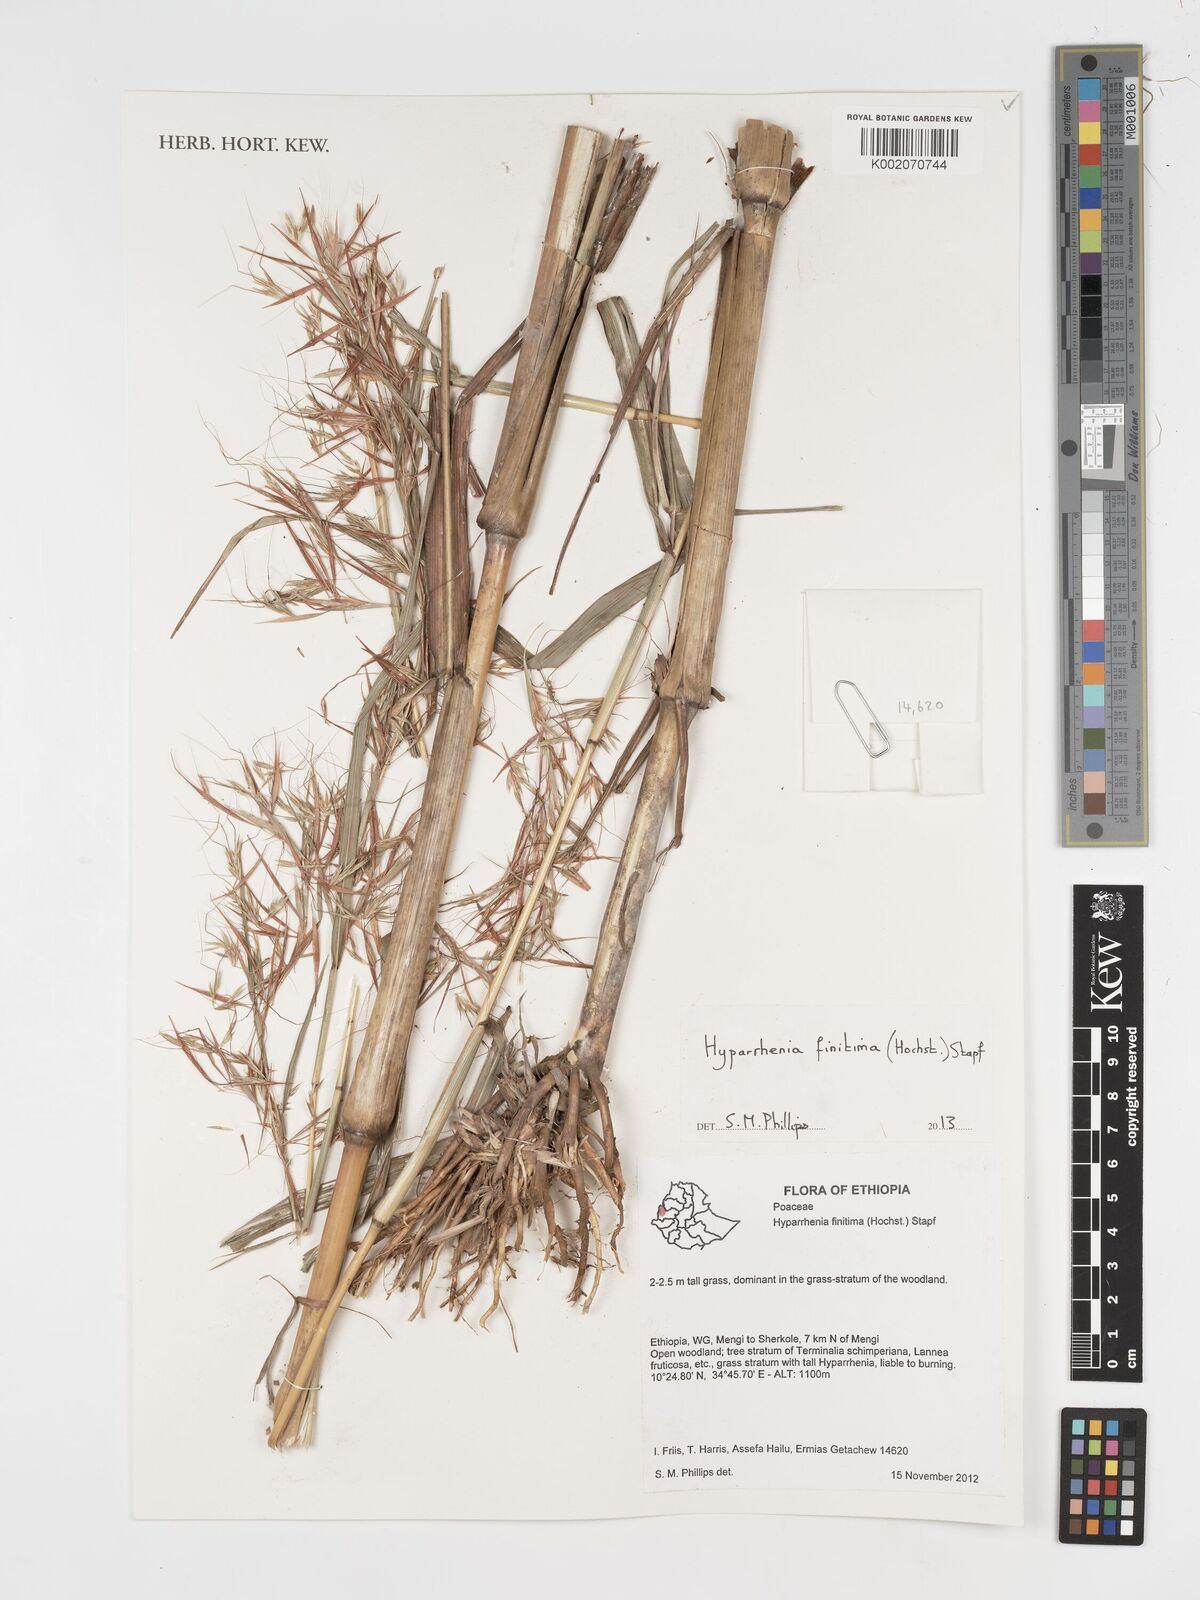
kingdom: Plantae
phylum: Tracheophyta
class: Liliopsida
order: Poales
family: Poaceae
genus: Hyparrhenia
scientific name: Hyparrhenia finitima
